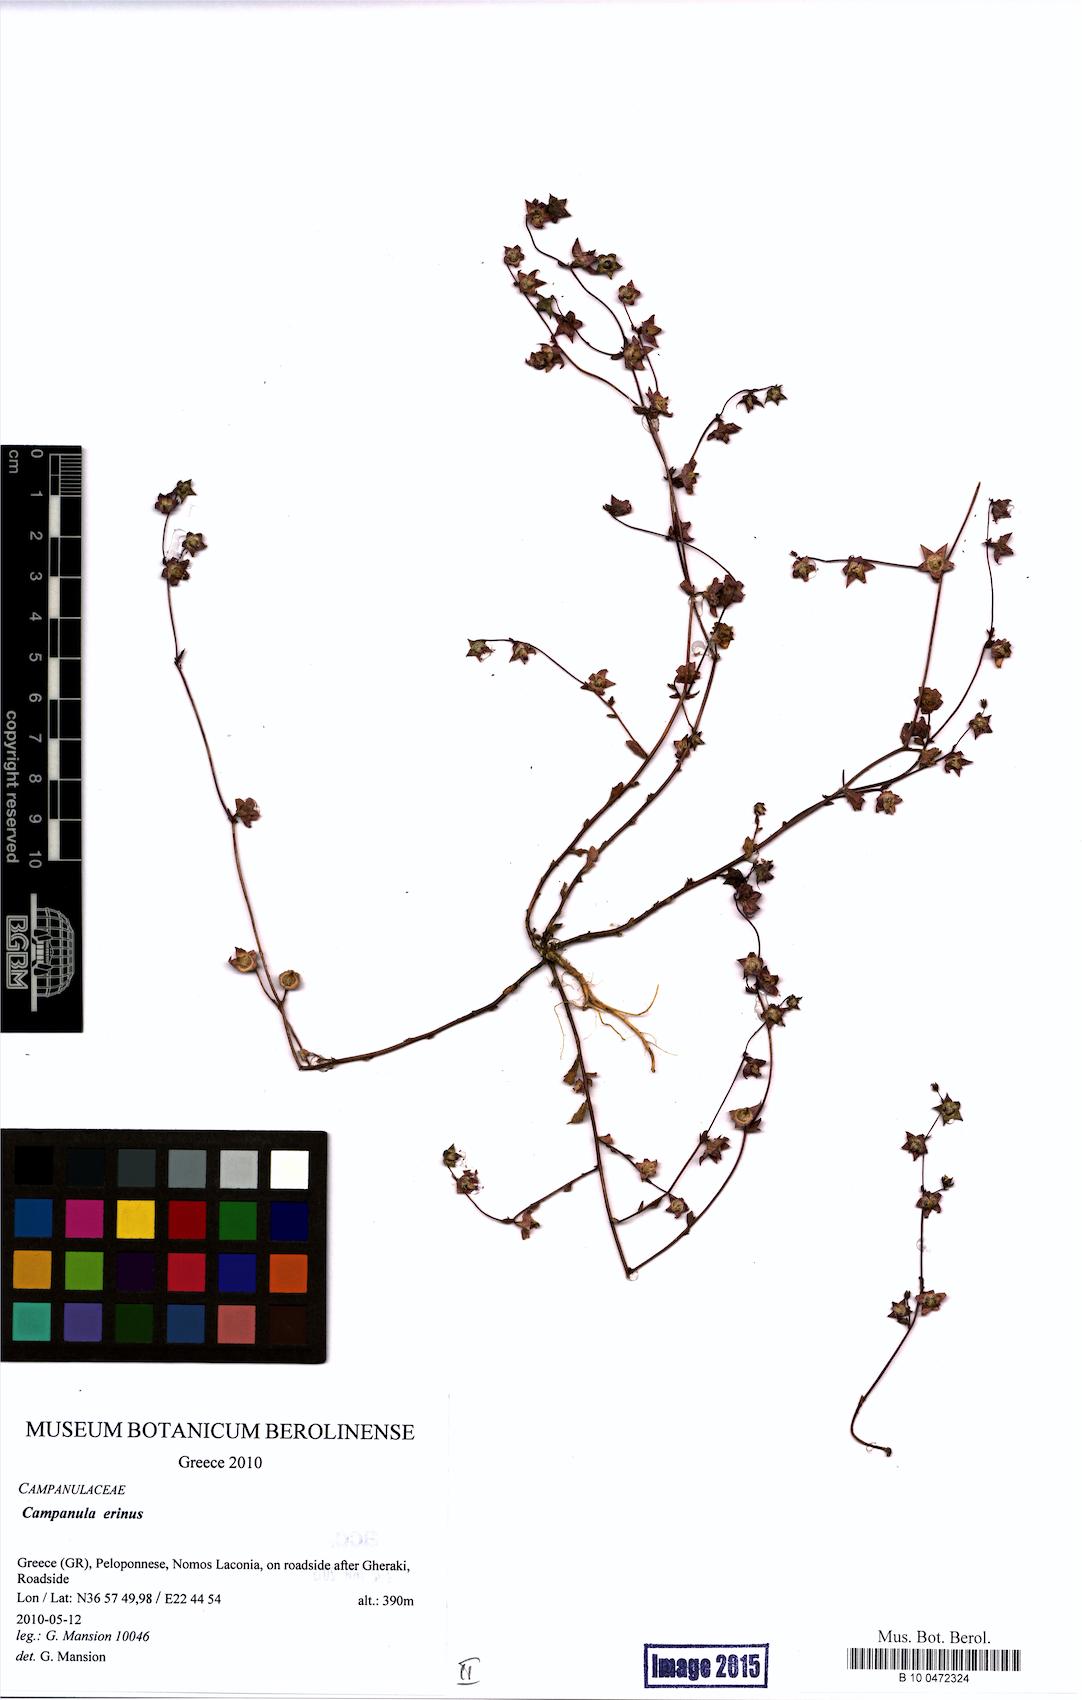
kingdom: Plantae
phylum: Tracheophyta
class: Magnoliopsida
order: Asterales
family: Campanulaceae
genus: Campanula
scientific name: Campanula erinus
